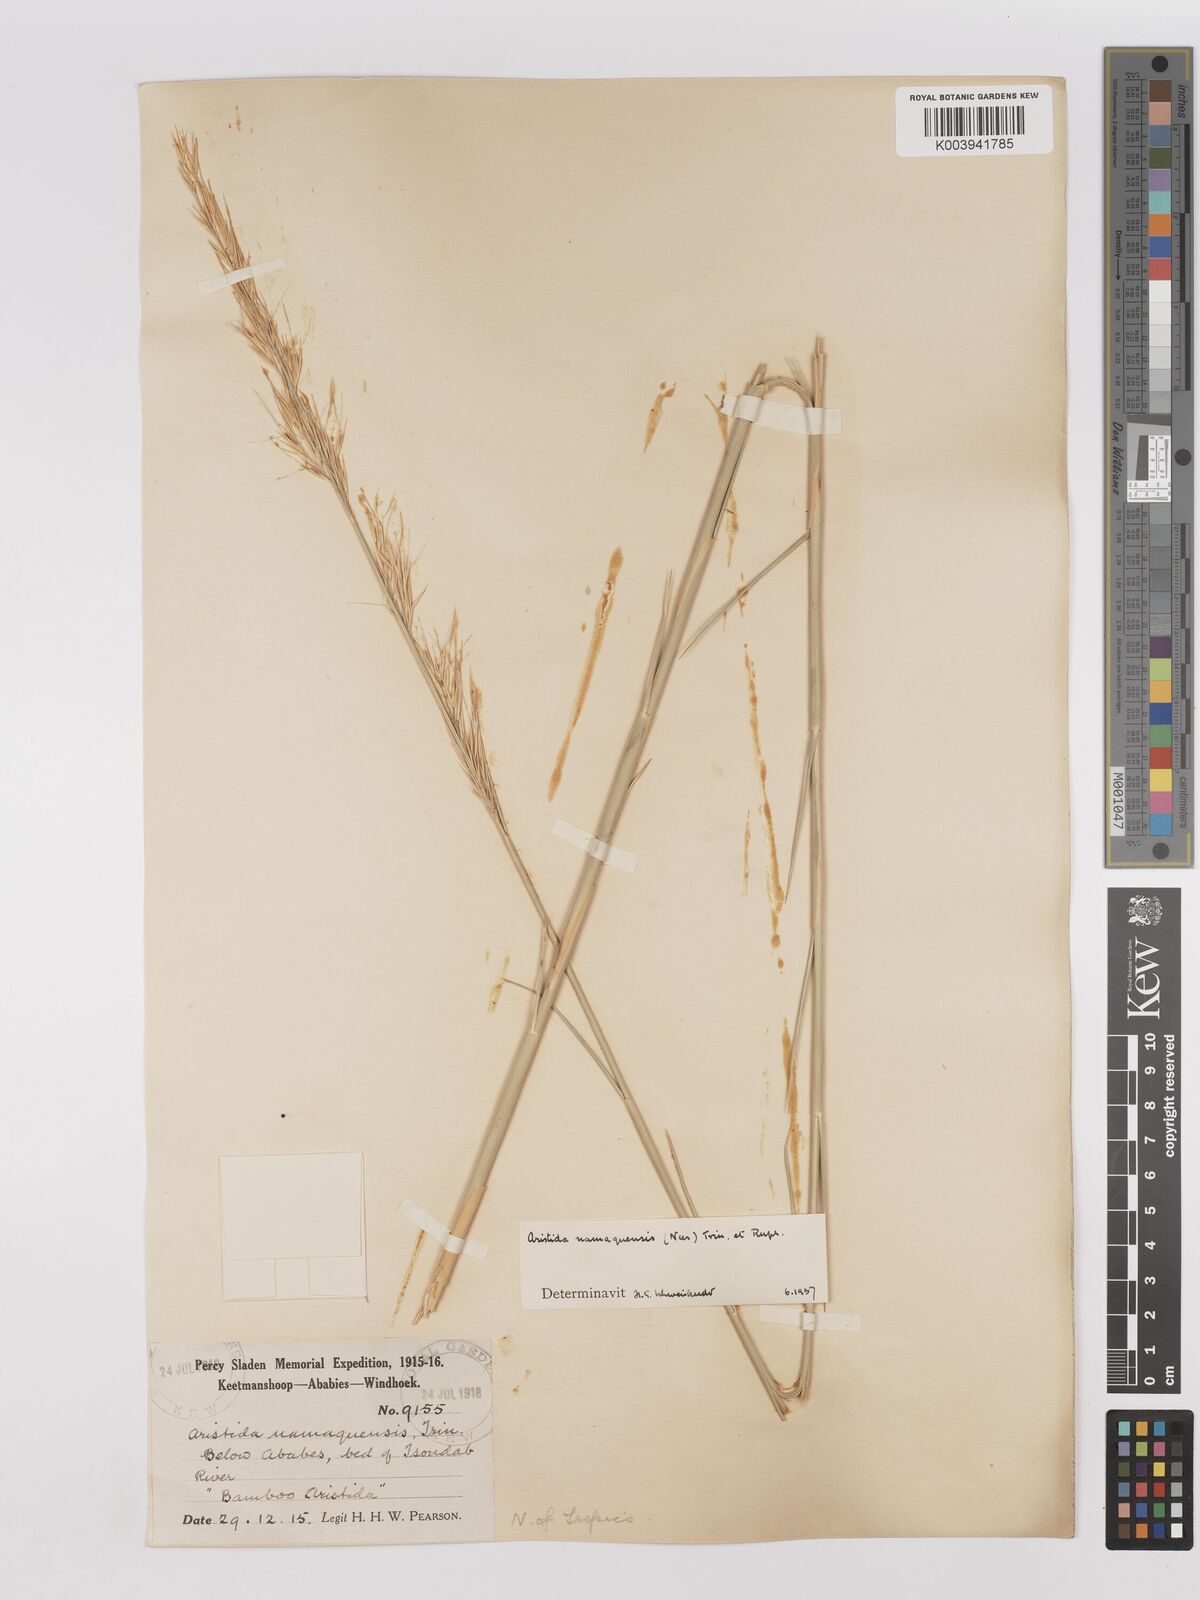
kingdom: Plantae
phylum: Tracheophyta
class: Liliopsida
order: Poales
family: Poaceae
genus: Stipagrostis
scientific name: Stipagrostis namaquensis
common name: River bushman grass
